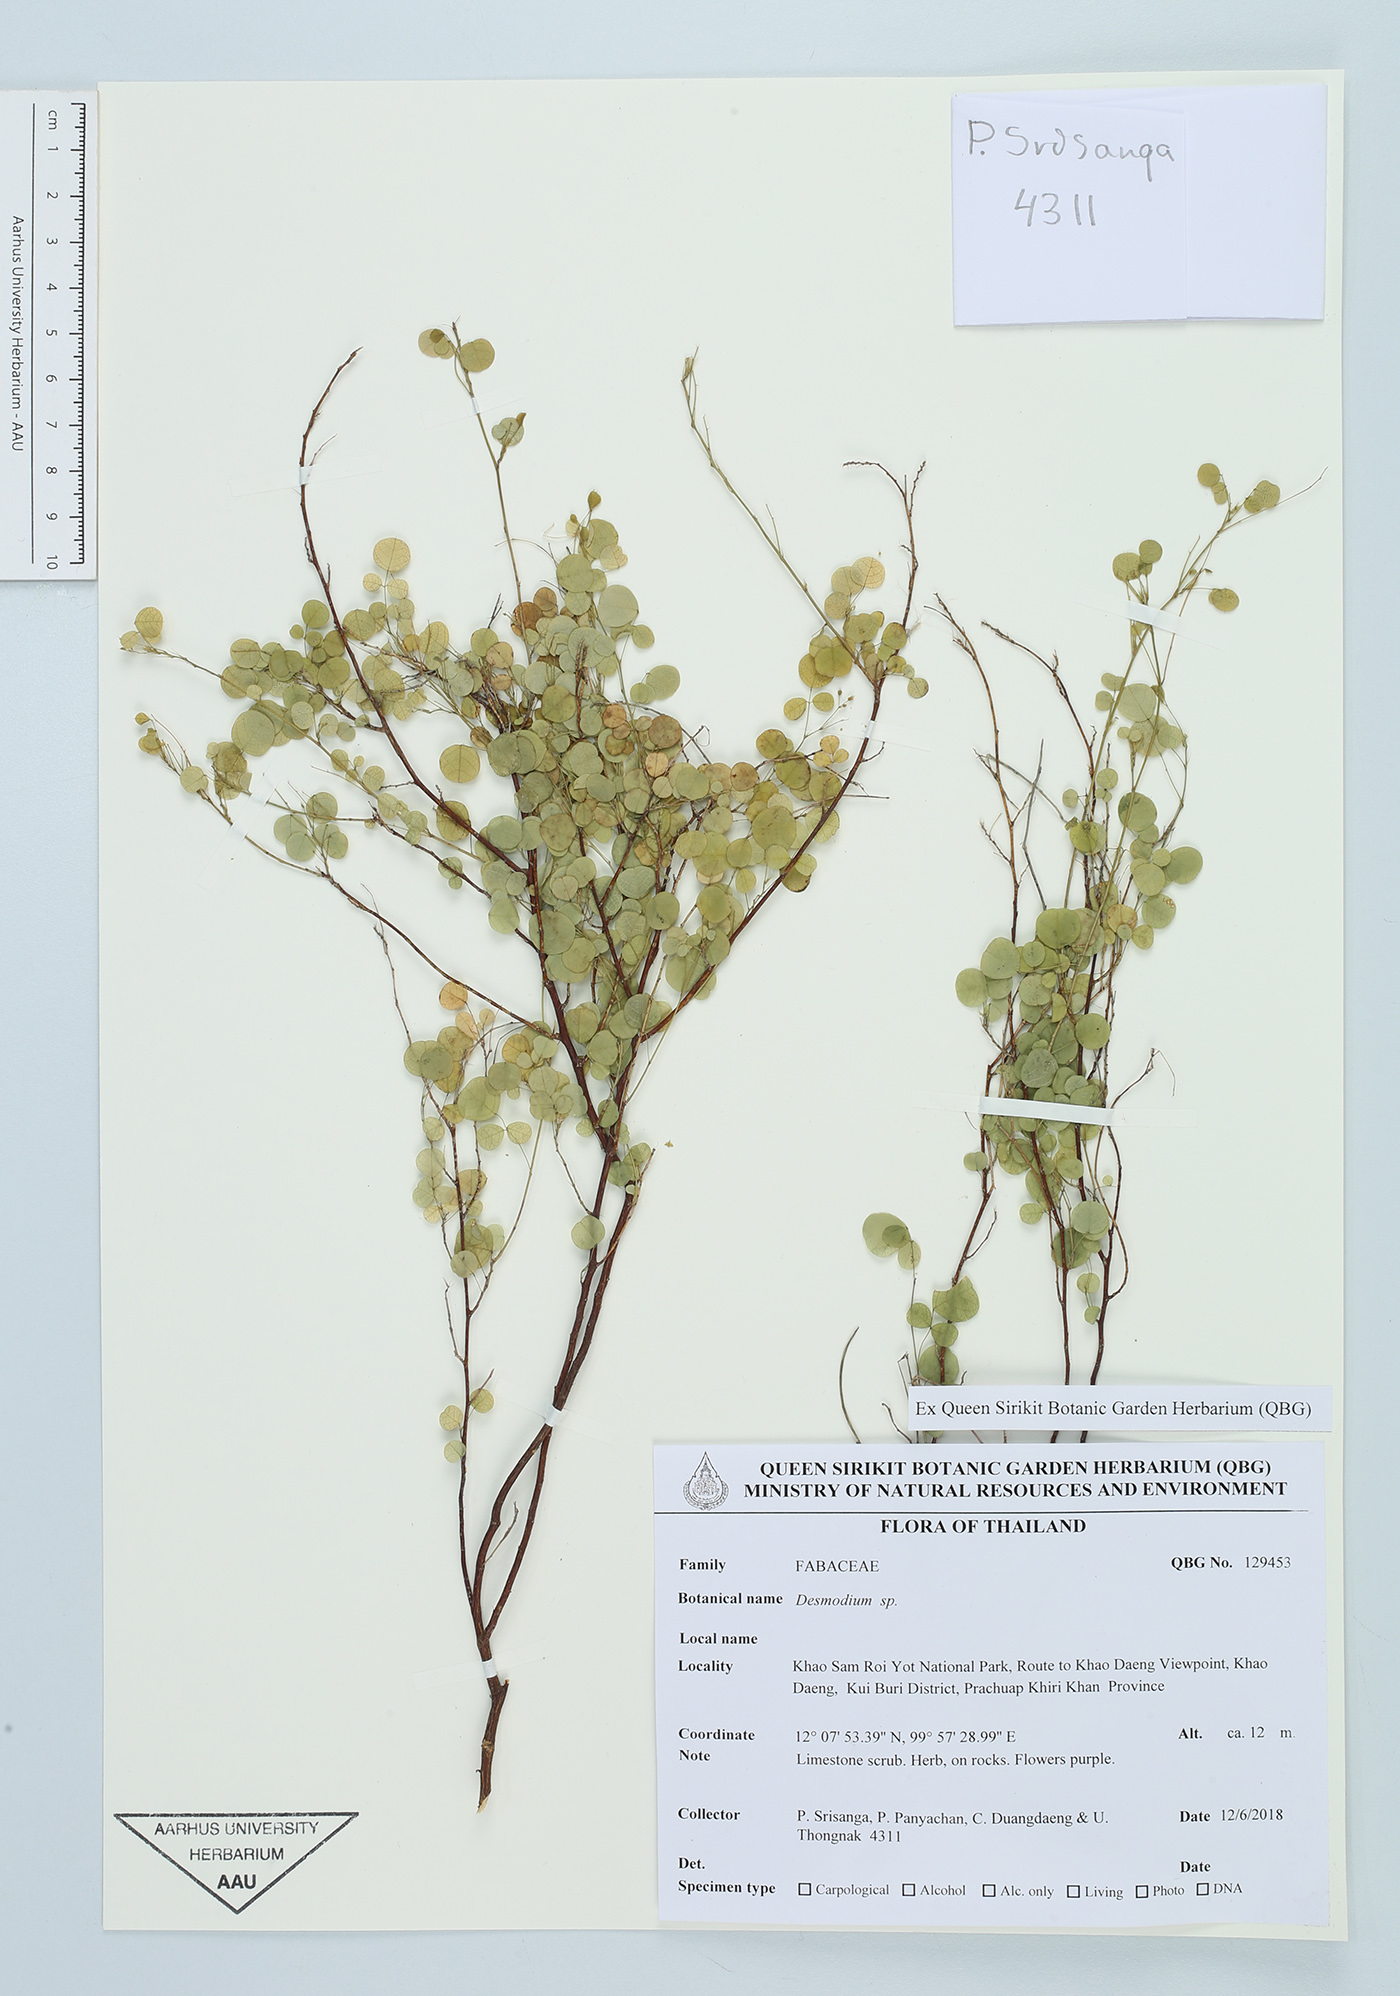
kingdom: Plantae
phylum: Tracheophyta
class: Magnoliopsida
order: Fabales
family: Fabaceae
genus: Desmodium
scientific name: Desmodium
